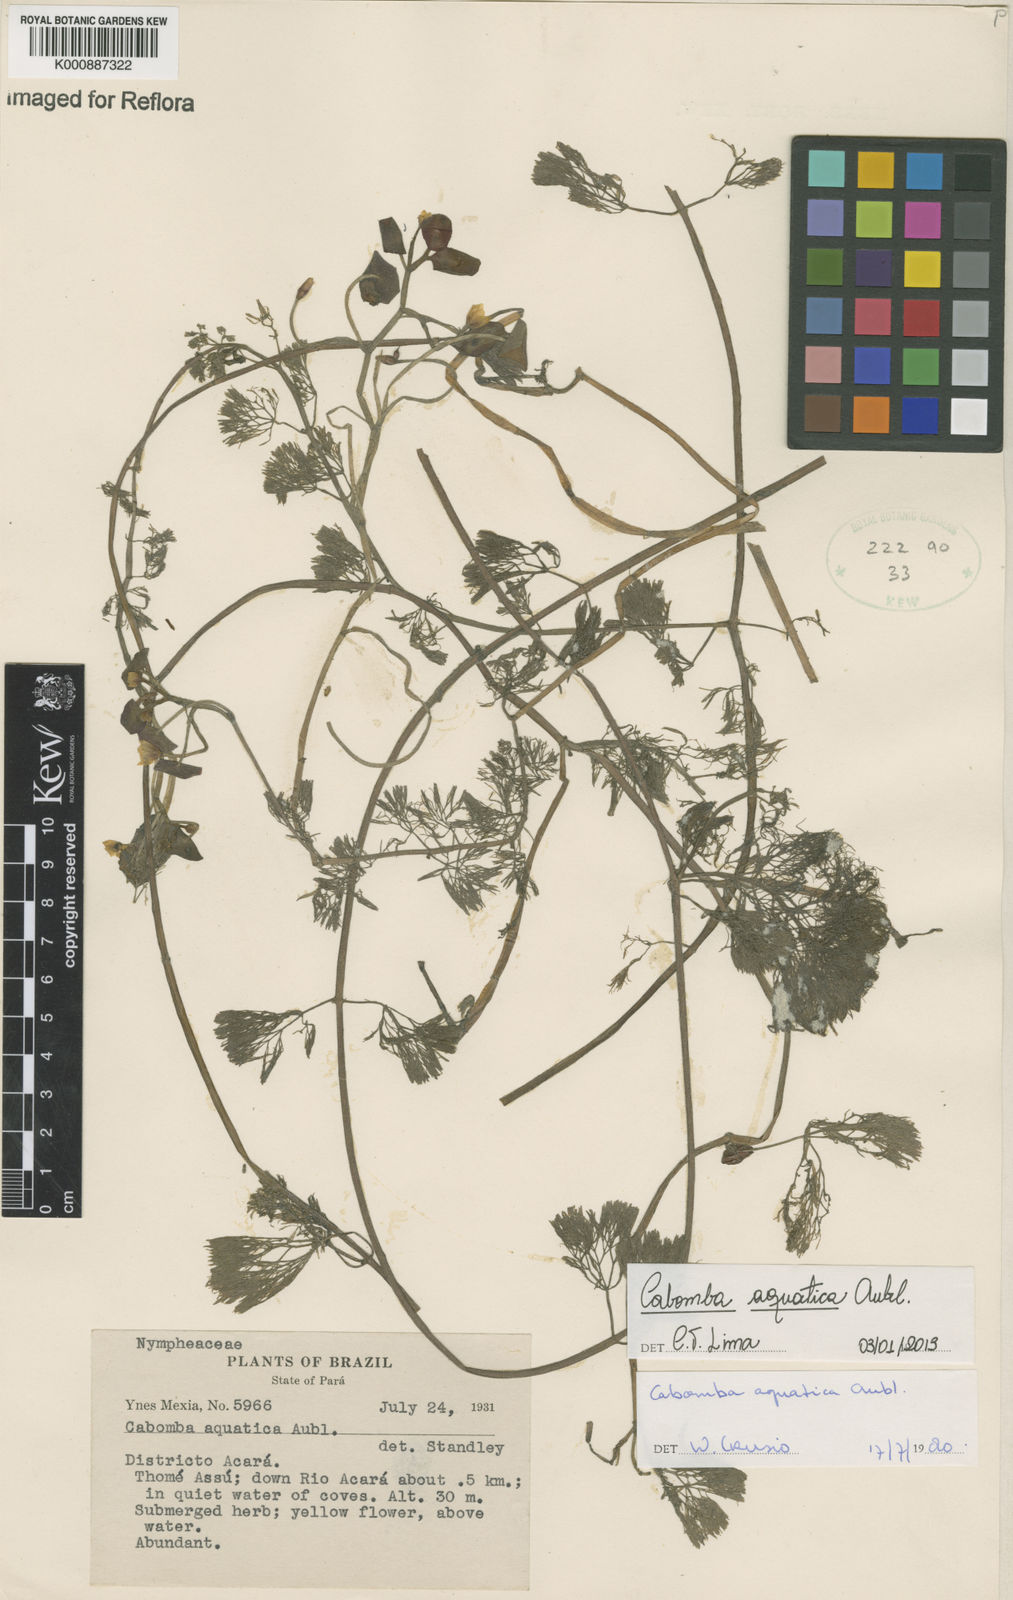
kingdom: Plantae
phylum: Tracheophyta
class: Magnoliopsida
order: Nymphaeales
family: Cabombaceae
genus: Cabomba
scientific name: Cabomba aquatica
